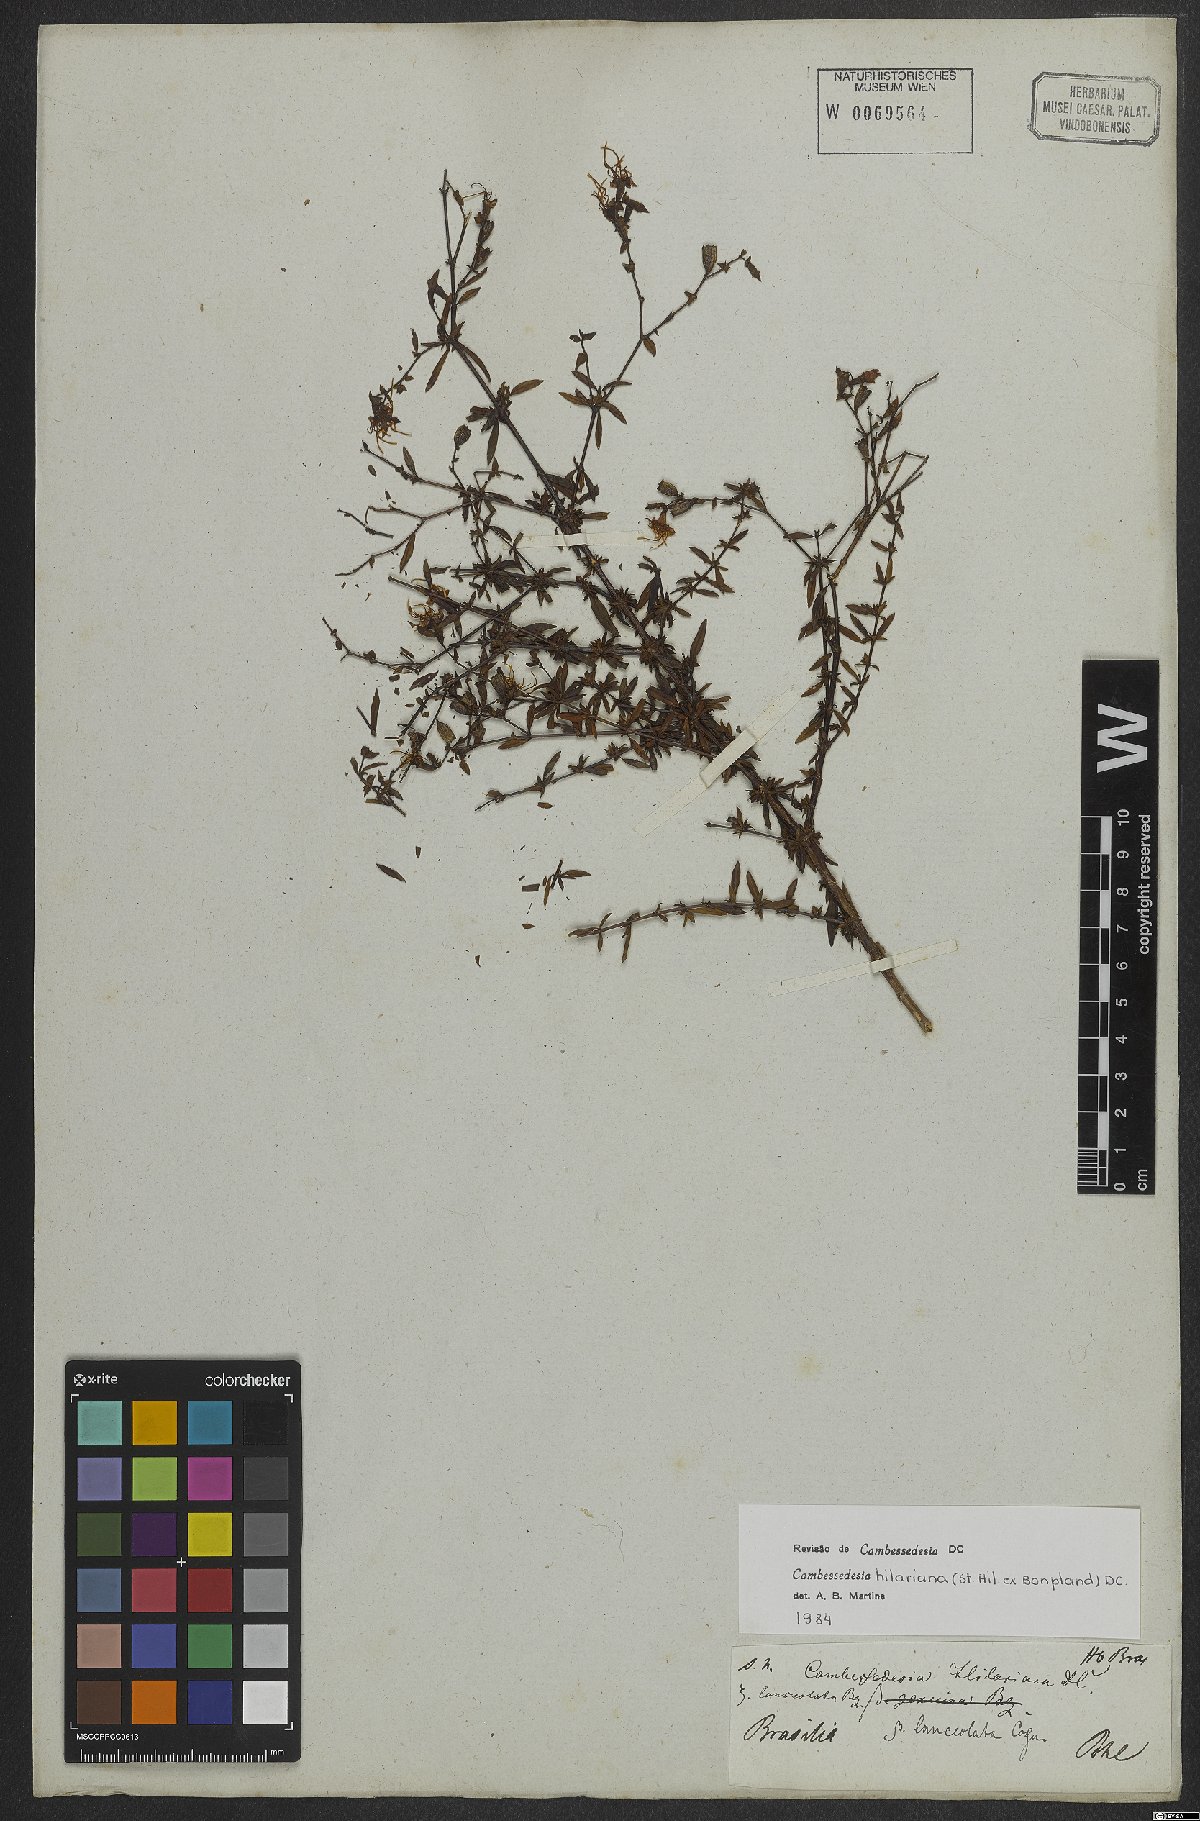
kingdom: Plantae
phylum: Tracheophyta
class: Magnoliopsida
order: Myrtales
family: Melastomataceae
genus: Cambessedesia
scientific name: Cambessedesia hilariana
